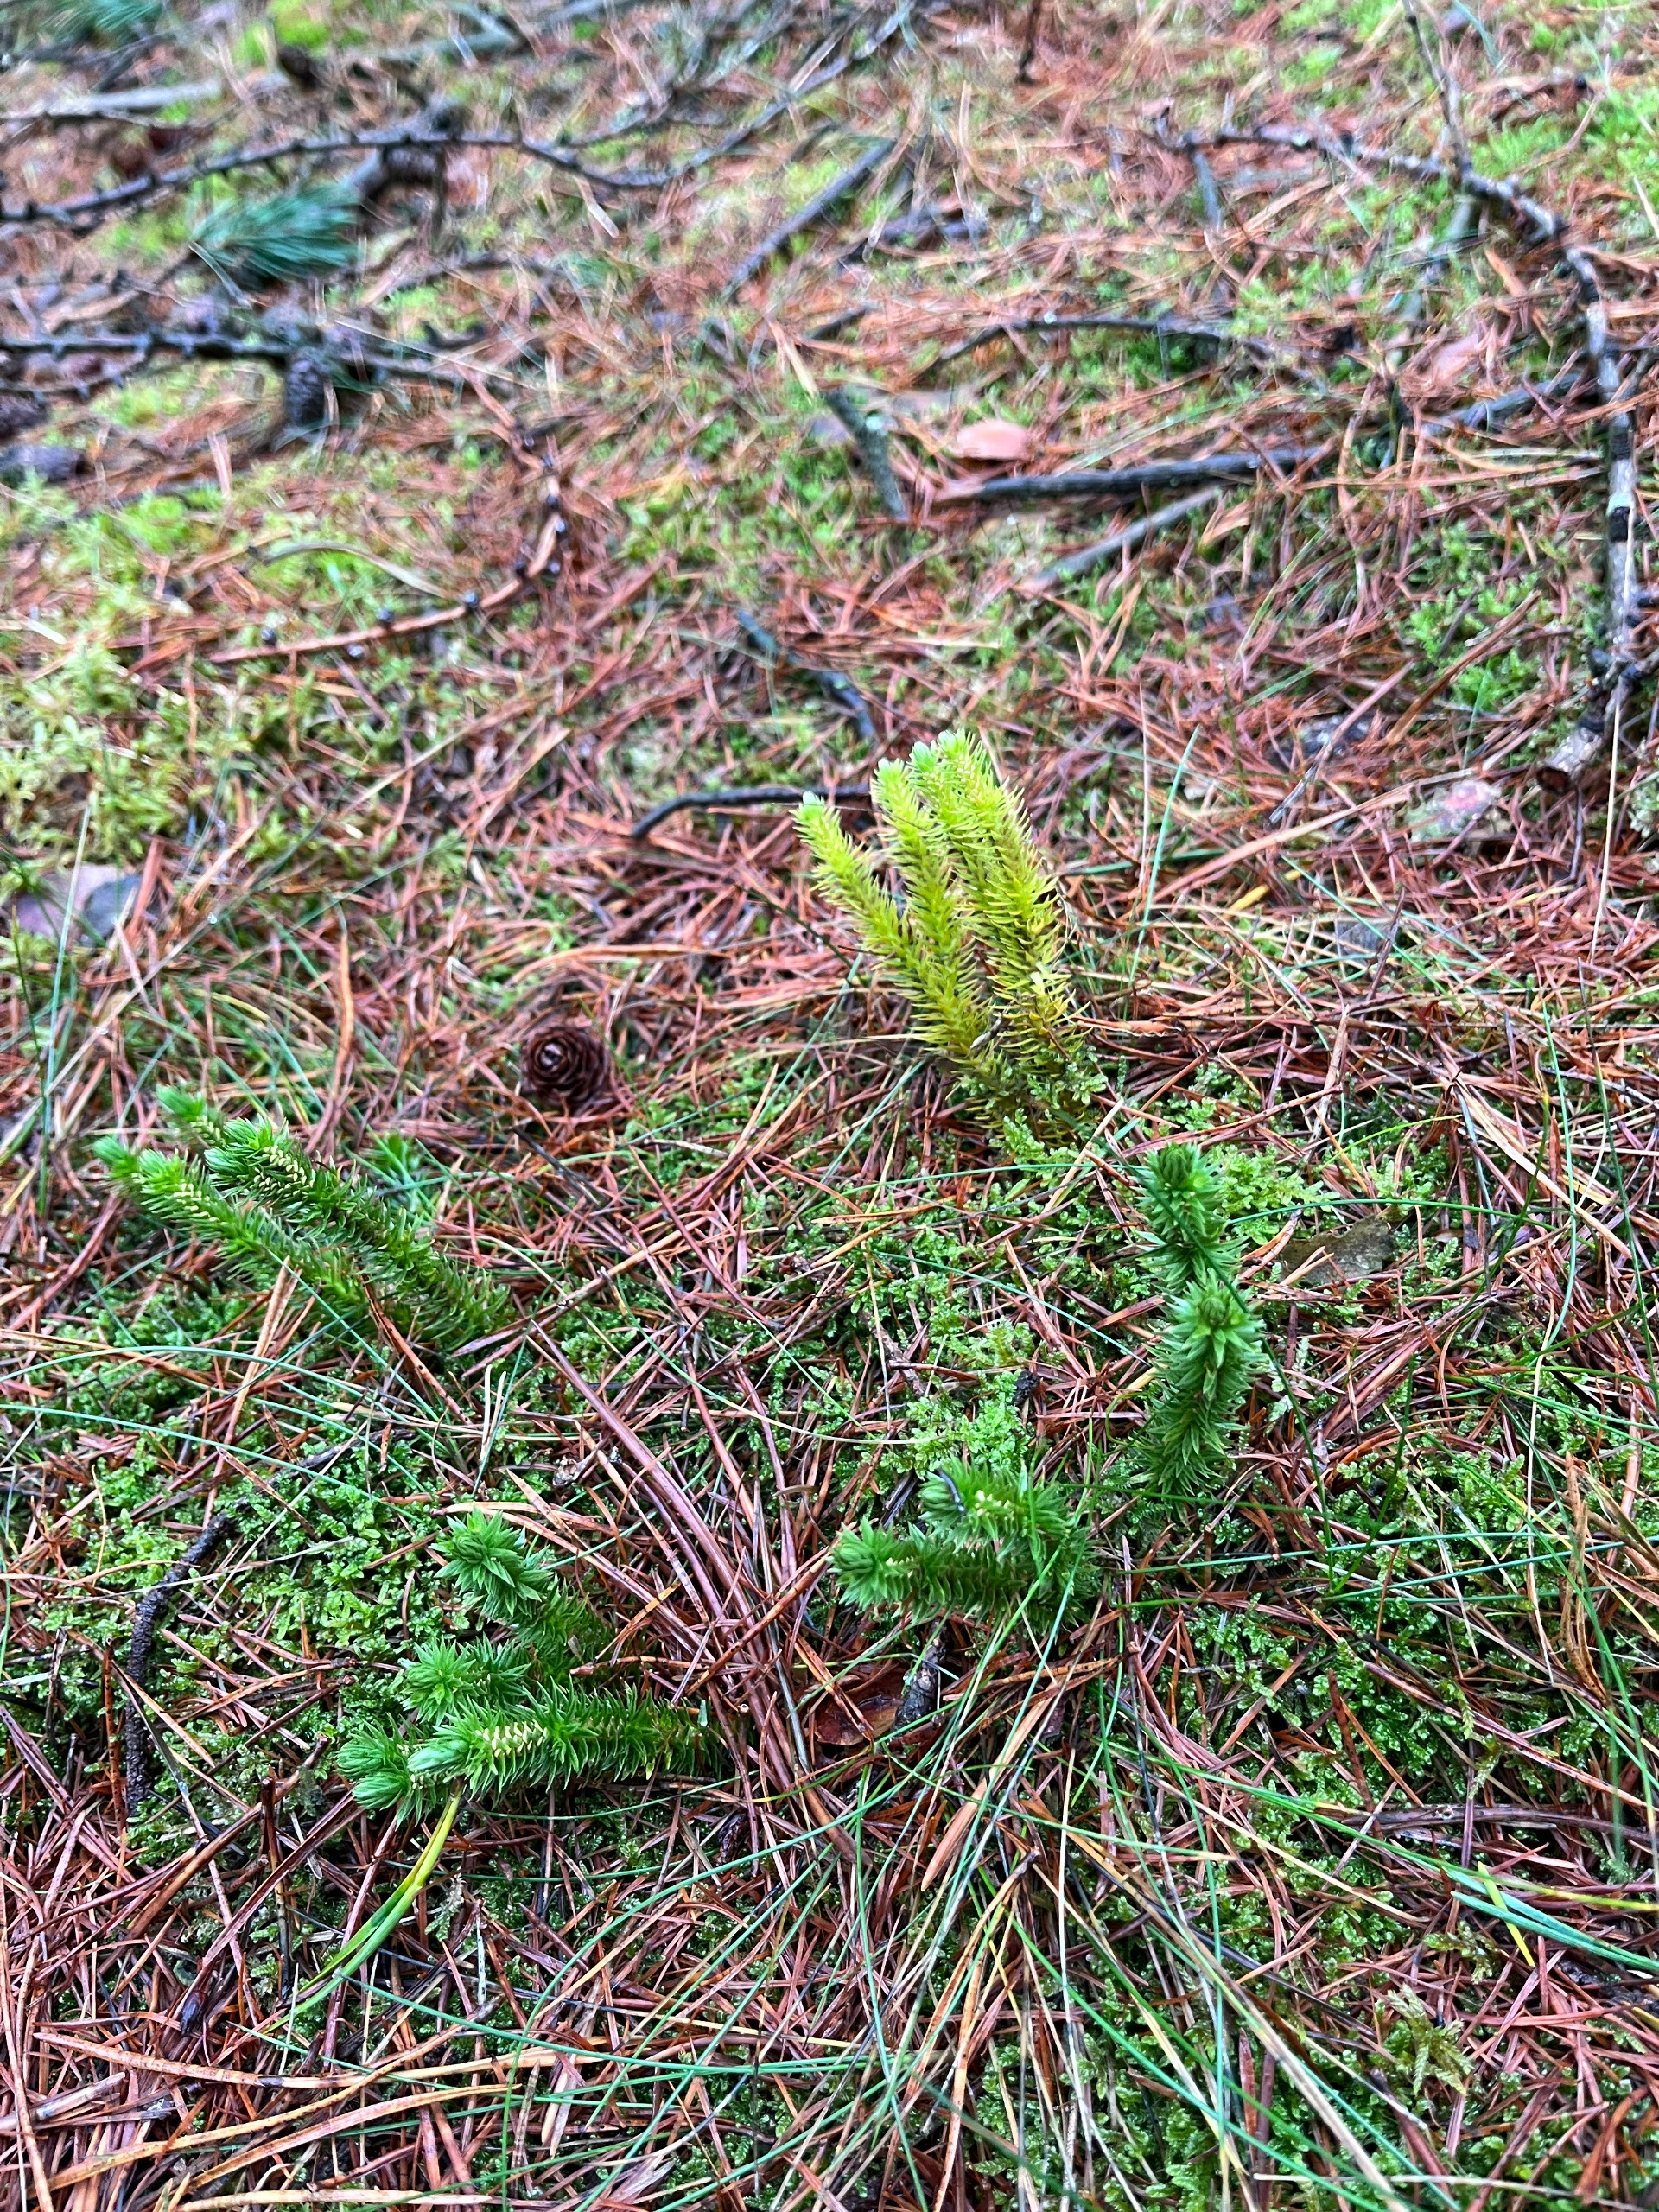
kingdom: Plantae
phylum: Tracheophyta
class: Lycopodiopsida
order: Lycopodiales
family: Lycopodiaceae
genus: Huperzia
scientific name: Huperzia selago
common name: Otteradet ulvefod
